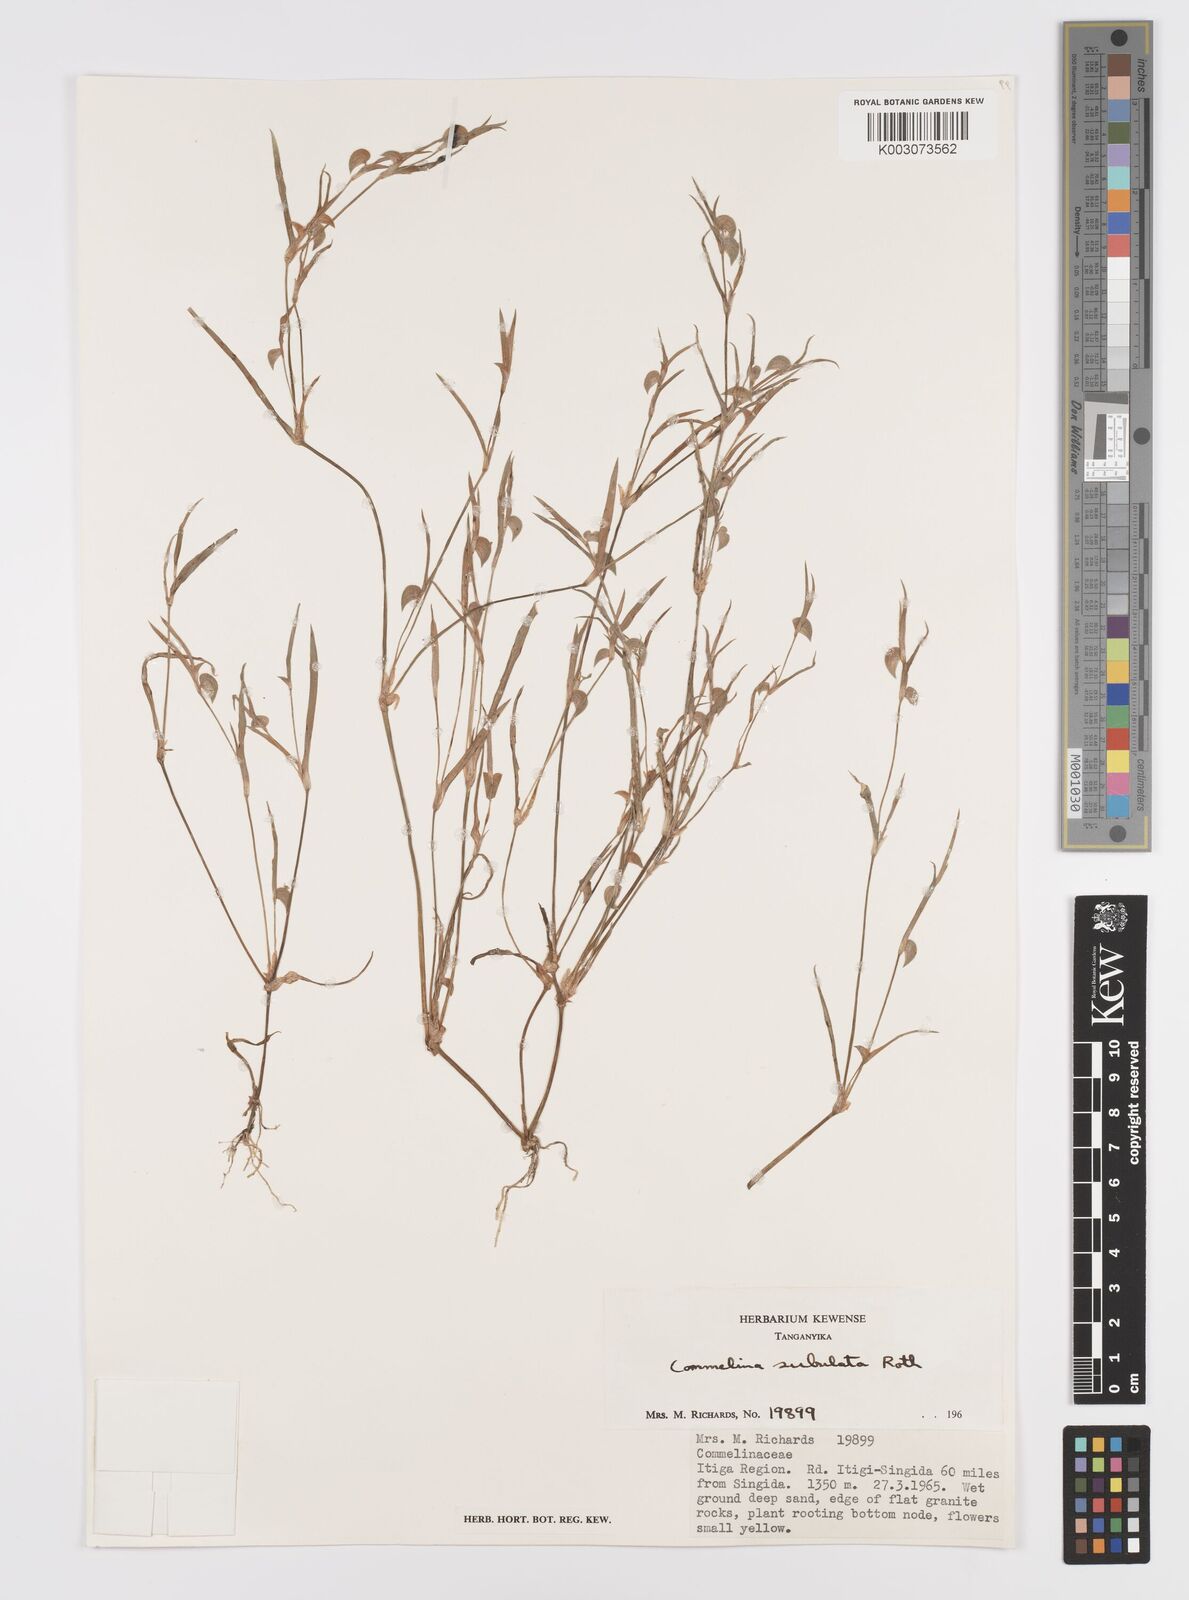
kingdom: Plantae
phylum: Tracheophyta
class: Liliopsida
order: Commelinales
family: Commelinaceae
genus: Commelina
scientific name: Commelina subulata
